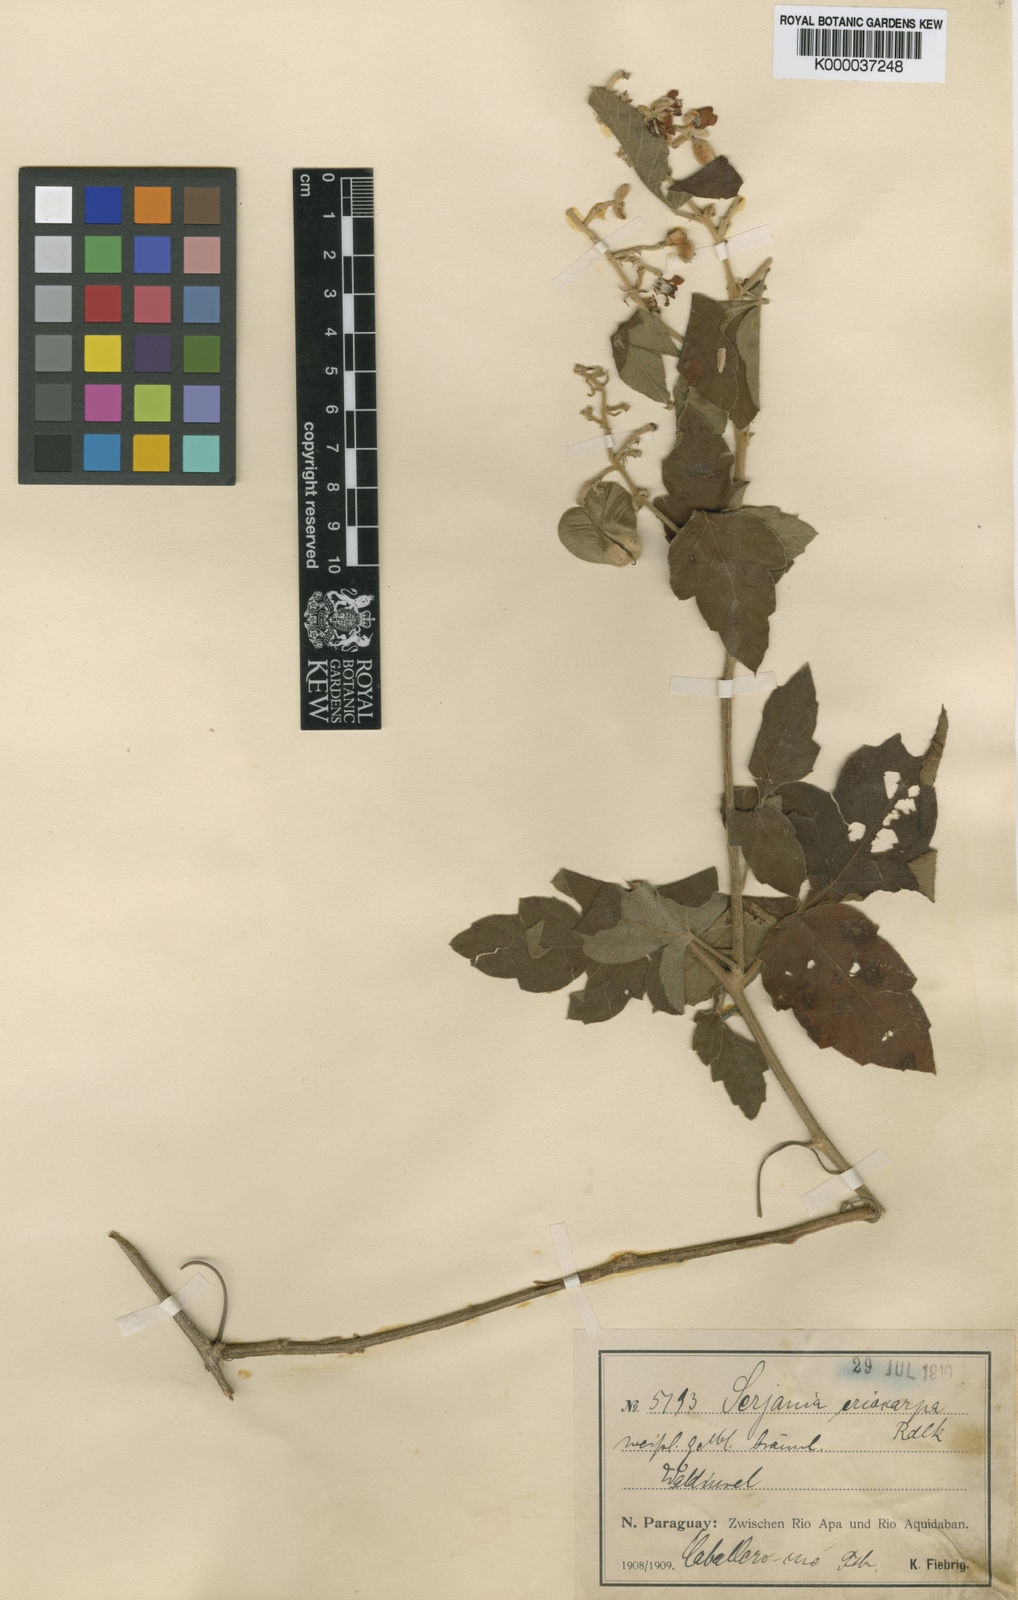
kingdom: Plantae
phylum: Tracheophyta
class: Magnoliopsida
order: Sapindales
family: Sapindaceae
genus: Serjania
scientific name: Serjania eriocarpa
